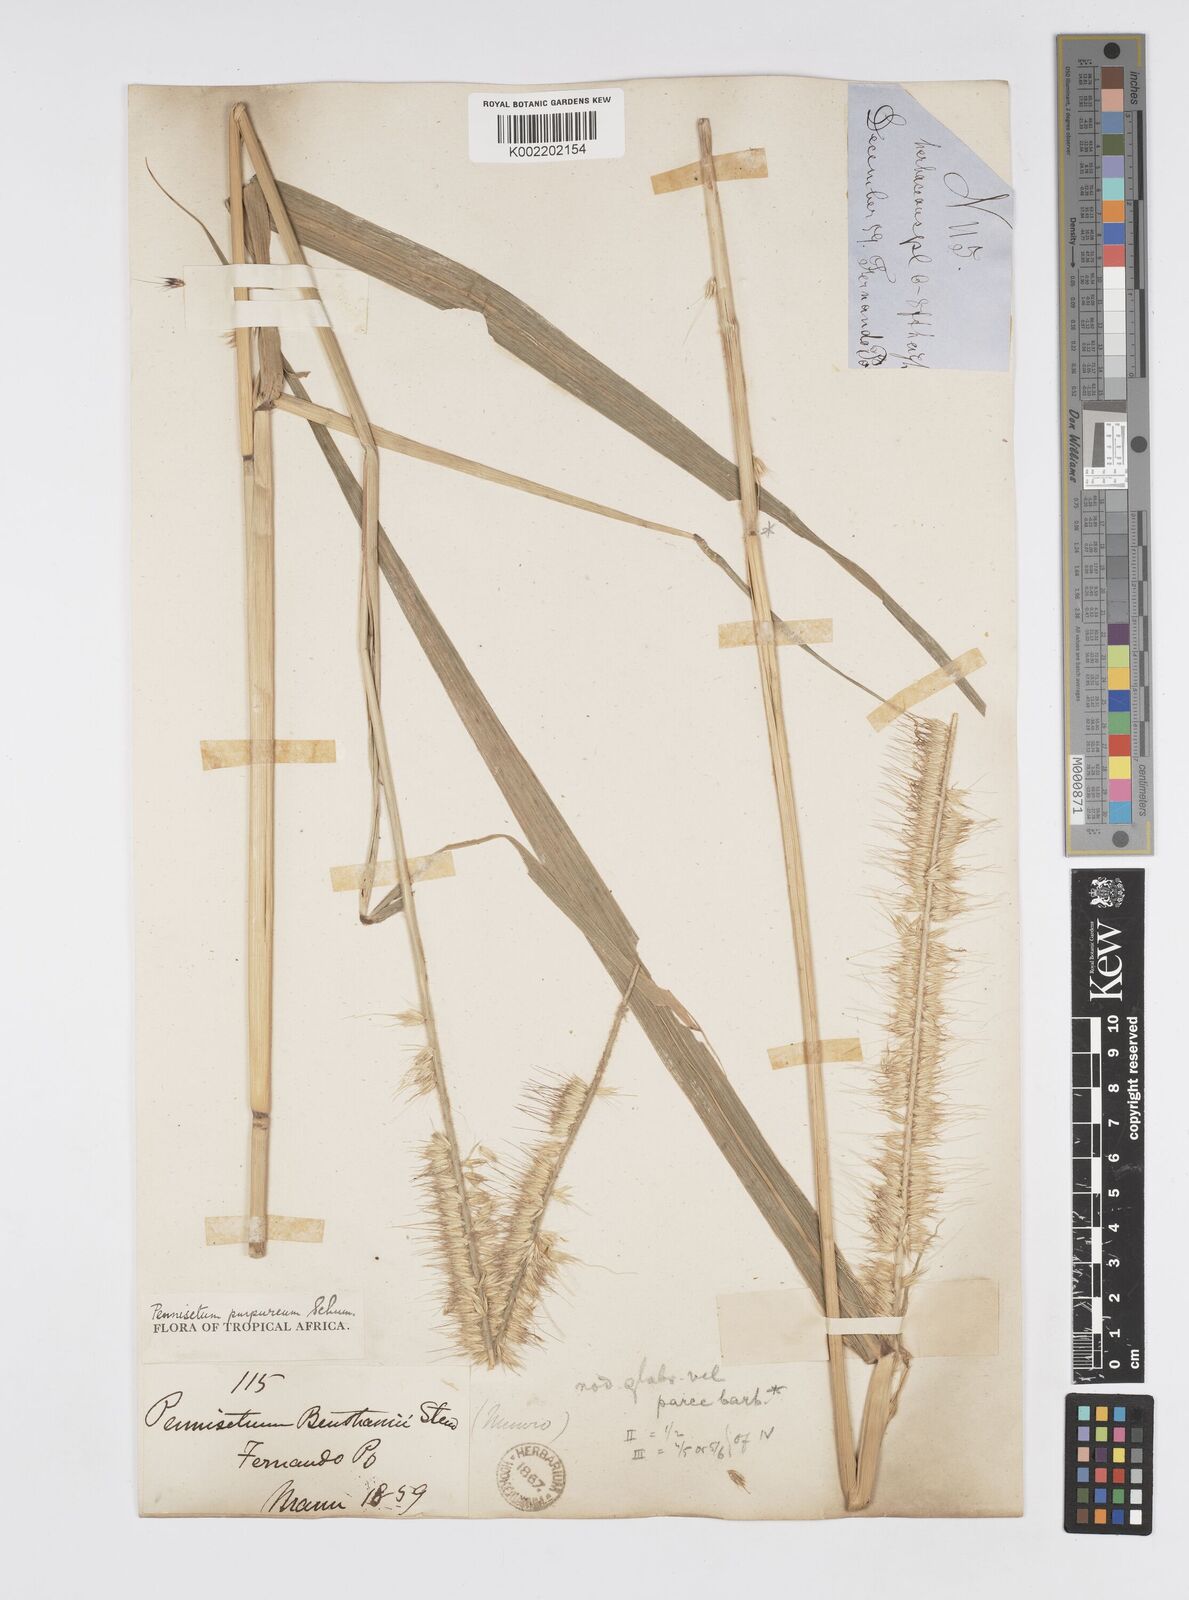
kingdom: Plantae
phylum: Tracheophyta
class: Liliopsida
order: Poales
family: Poaceae
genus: Cenchrus
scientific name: Cenchrus purpureus
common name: Elephant grass
